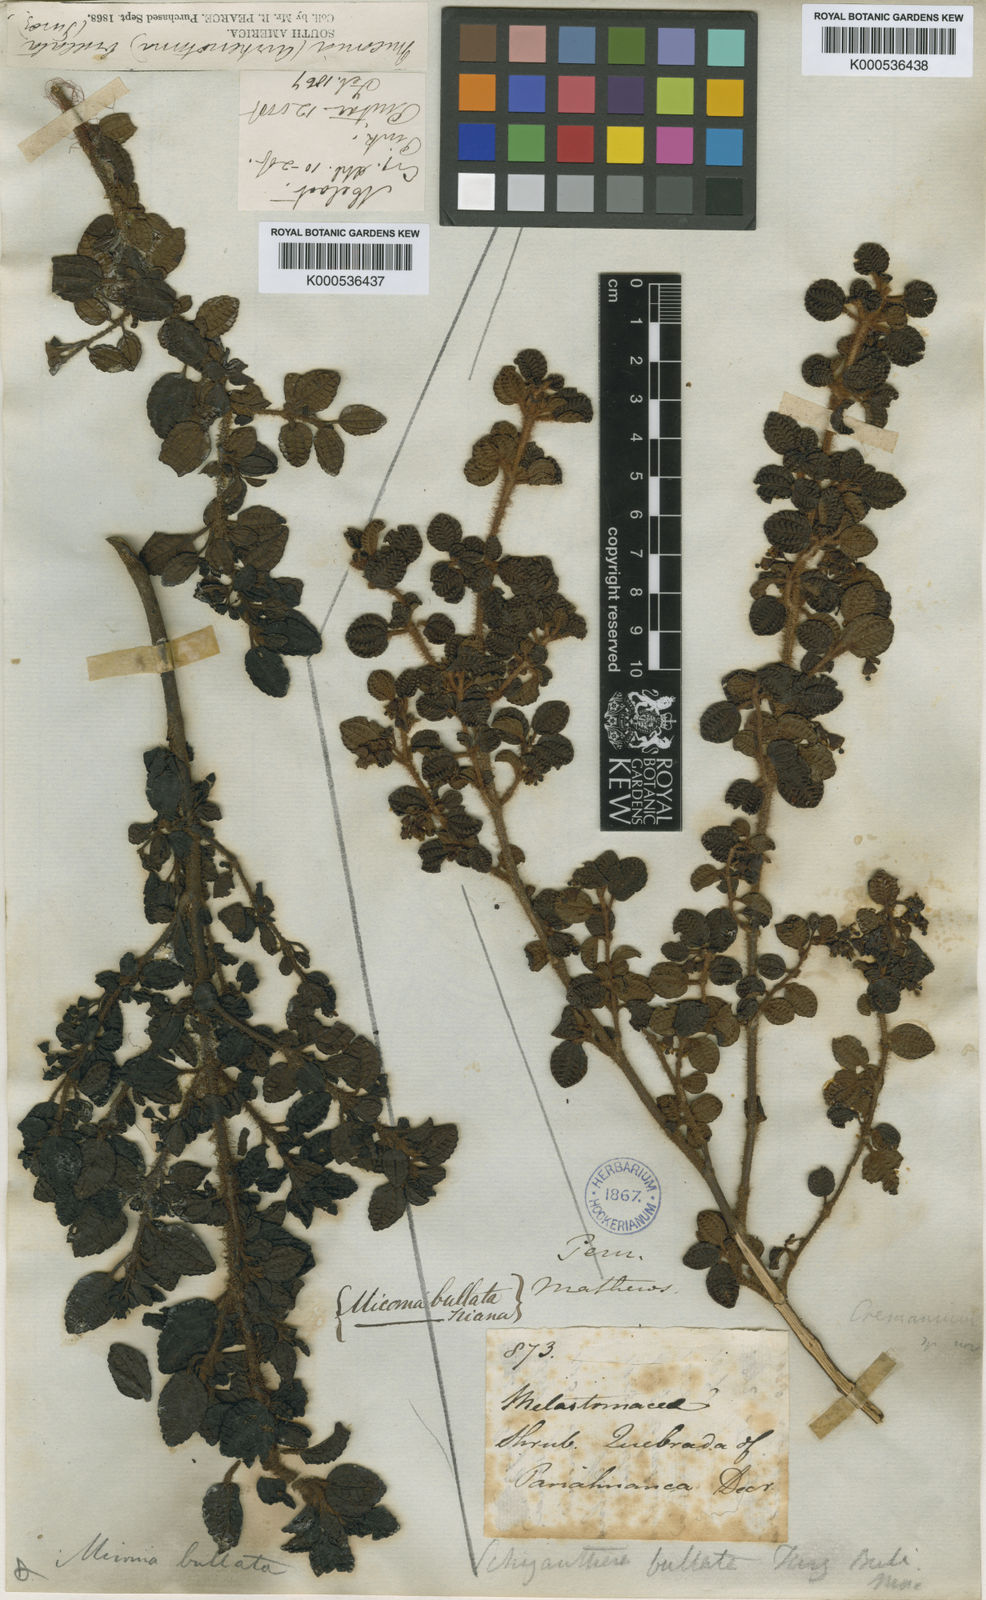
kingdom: Plantae
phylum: Tracheophyta
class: Magnoliopsida
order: Myrtales
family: Melastomataceae
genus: Miconia
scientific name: Miconia bullata
